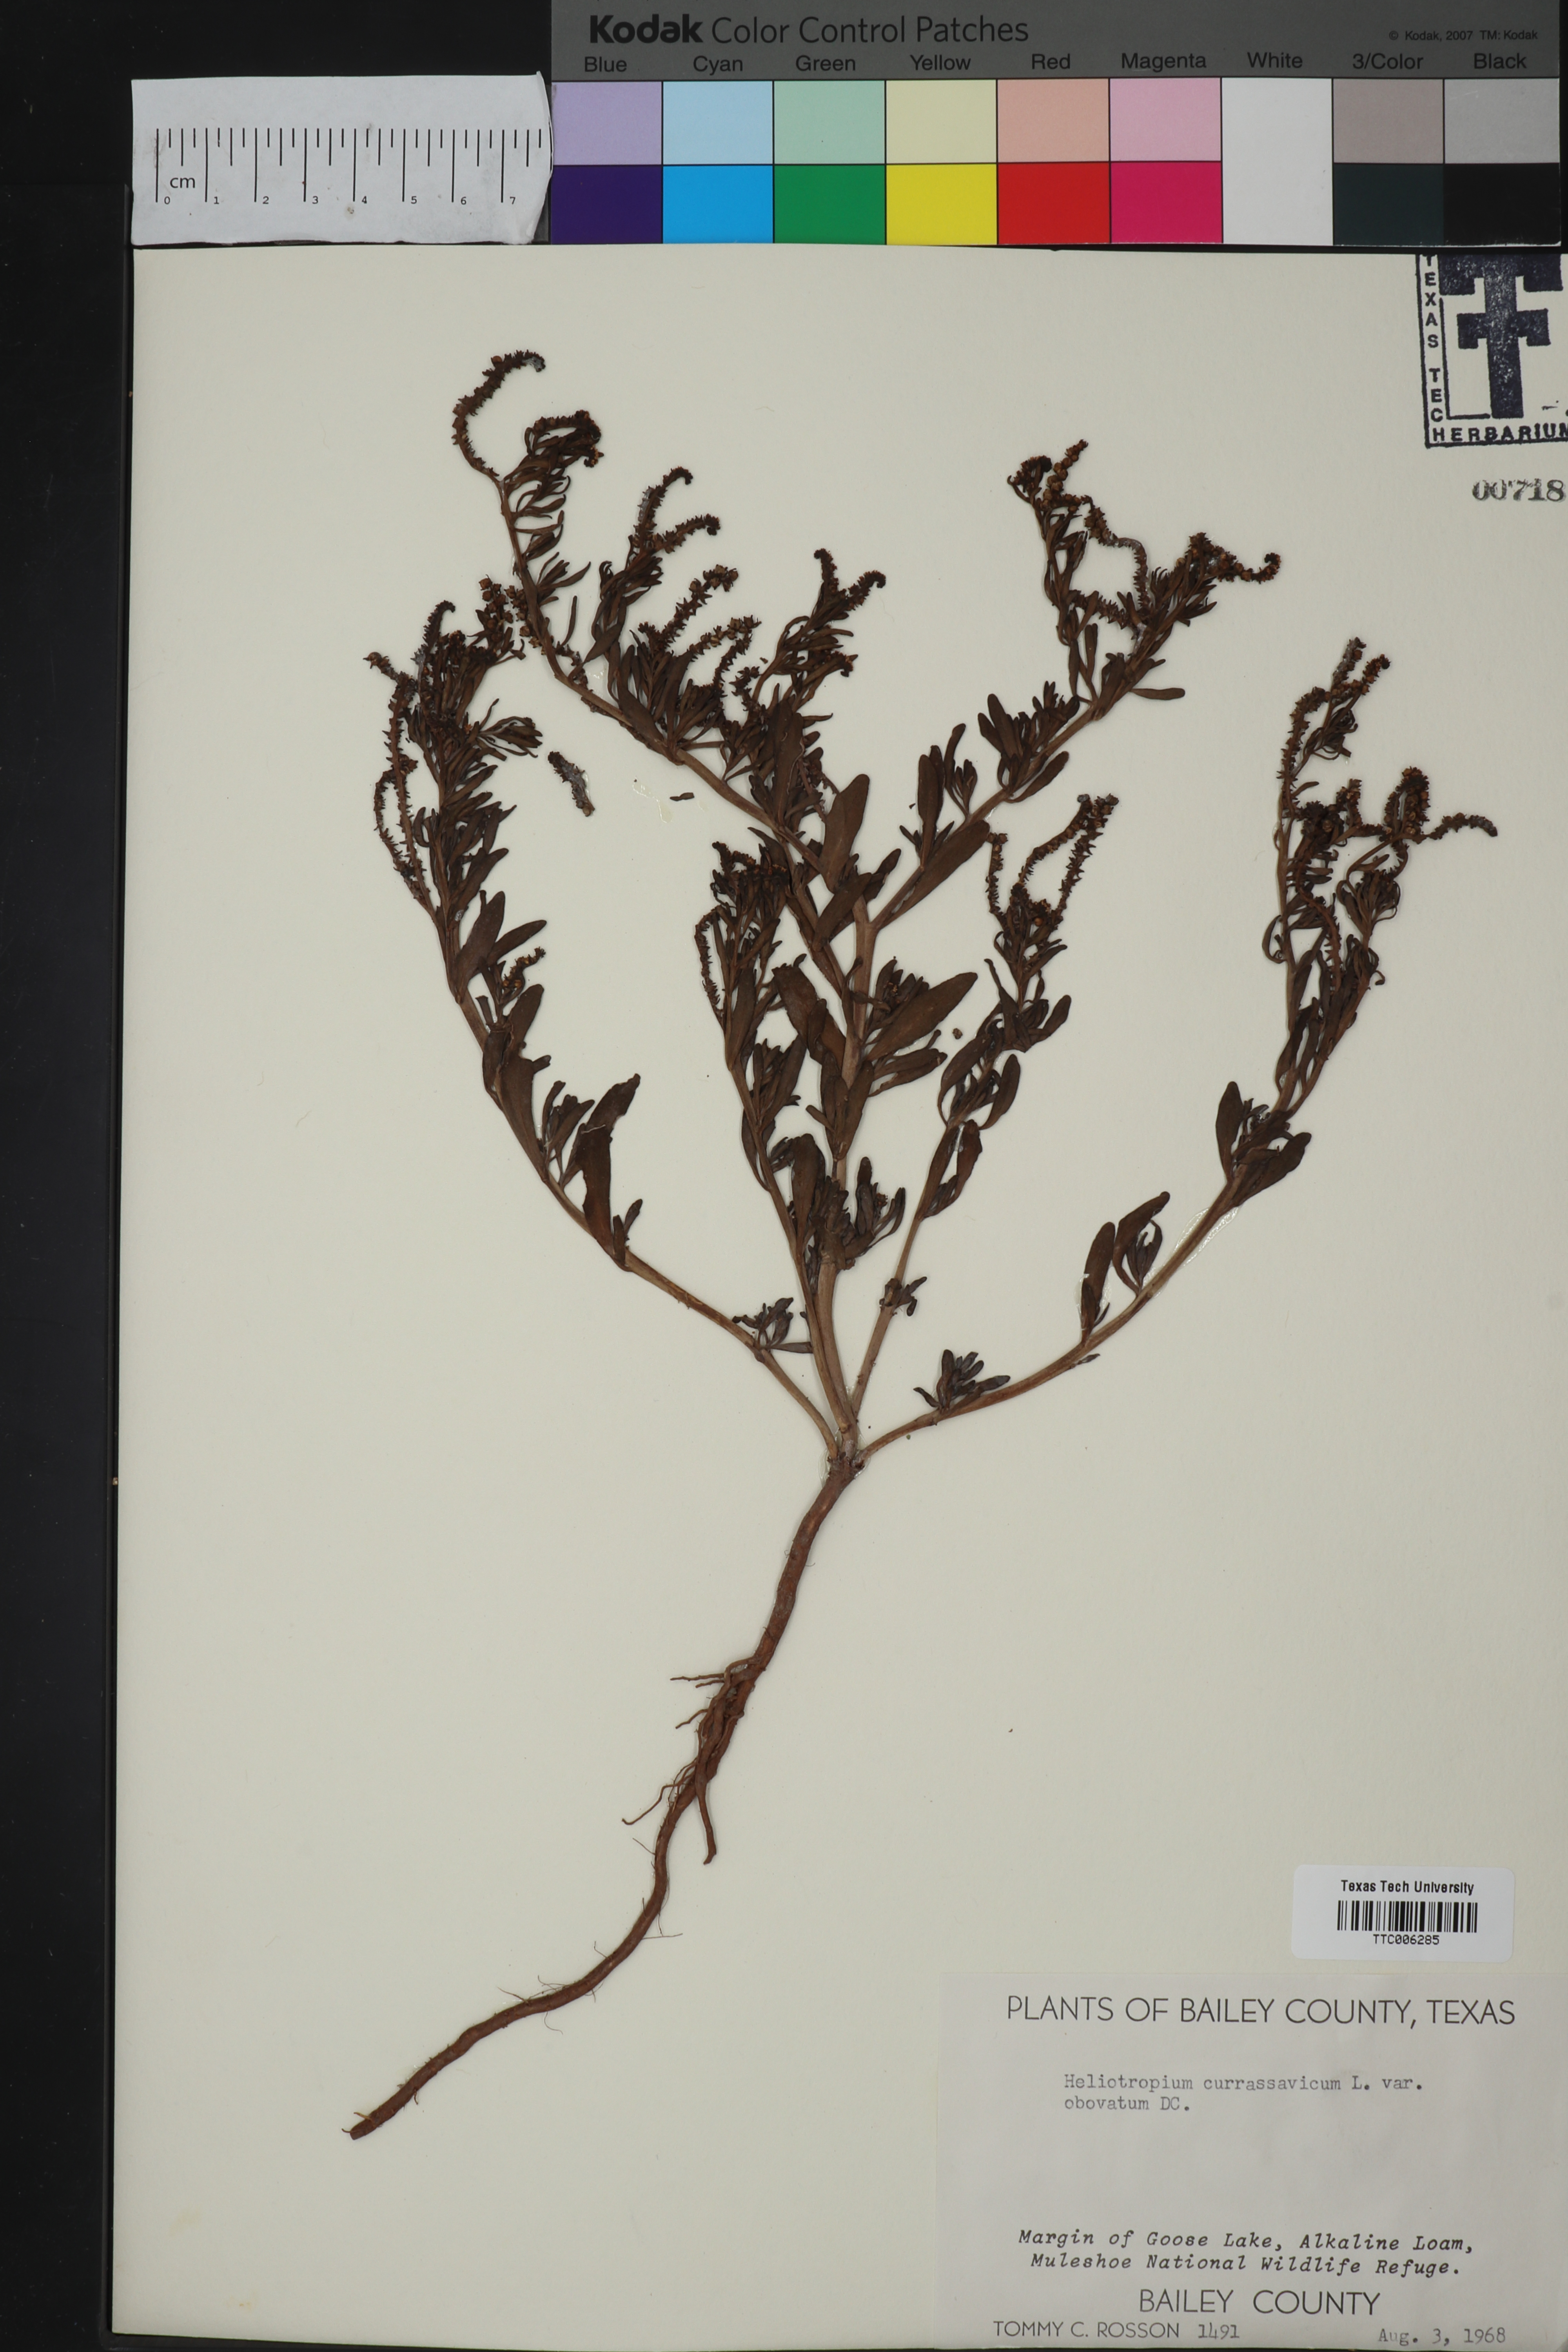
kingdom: Plantae
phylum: Tracheophyta
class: Magnoliopsida
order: Boraginales
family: Heliotropiaceae
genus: Heliotropium
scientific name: Heliotropium curassavicum
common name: Seaside heliotrope
